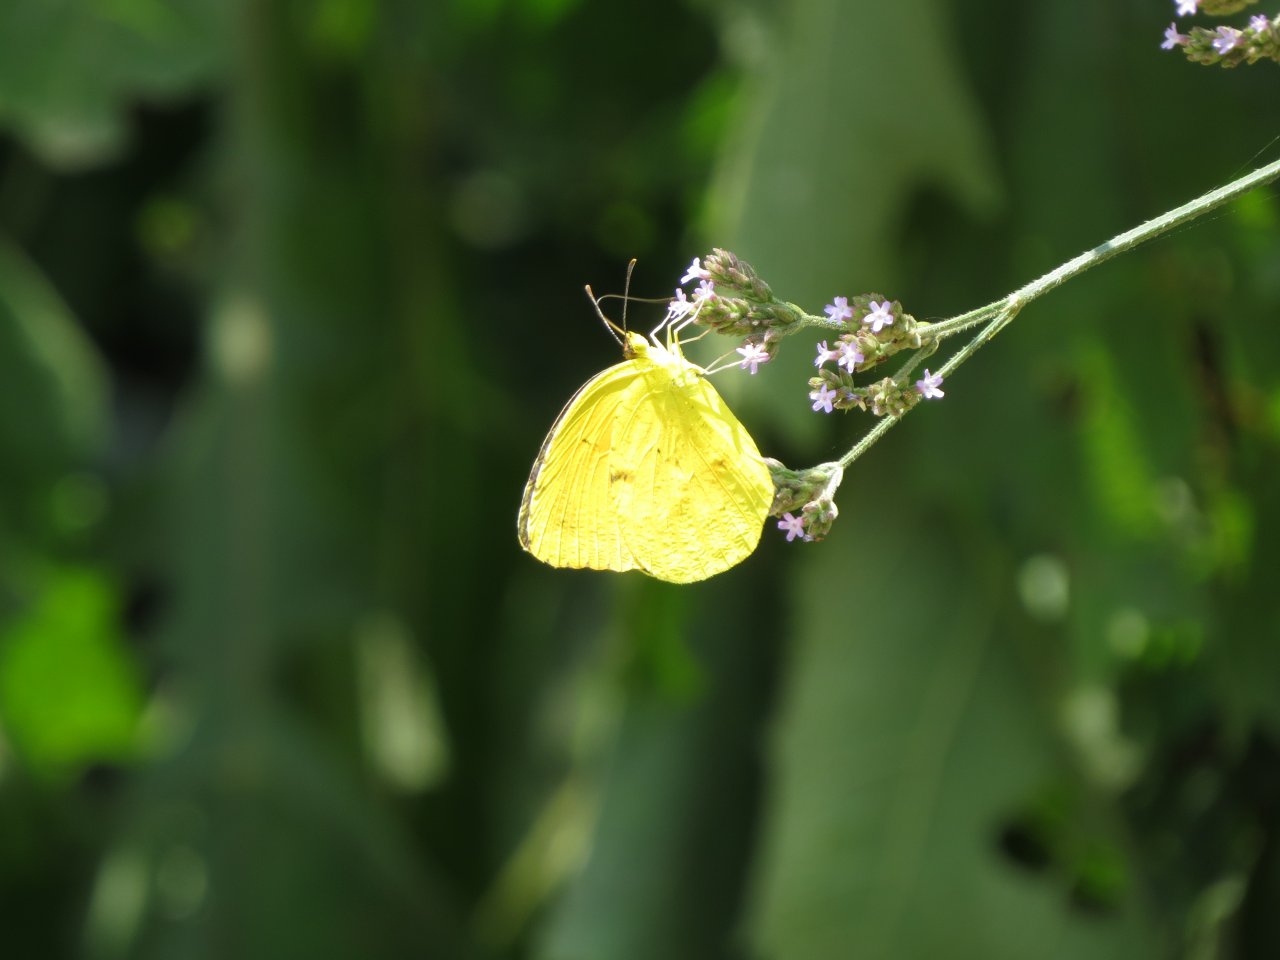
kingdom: Animalia
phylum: Arthropoda
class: Insecta
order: Lepidoptera
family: Pieridae
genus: Abaeis
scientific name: Abaeis nicippe
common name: Sleepy Orange
